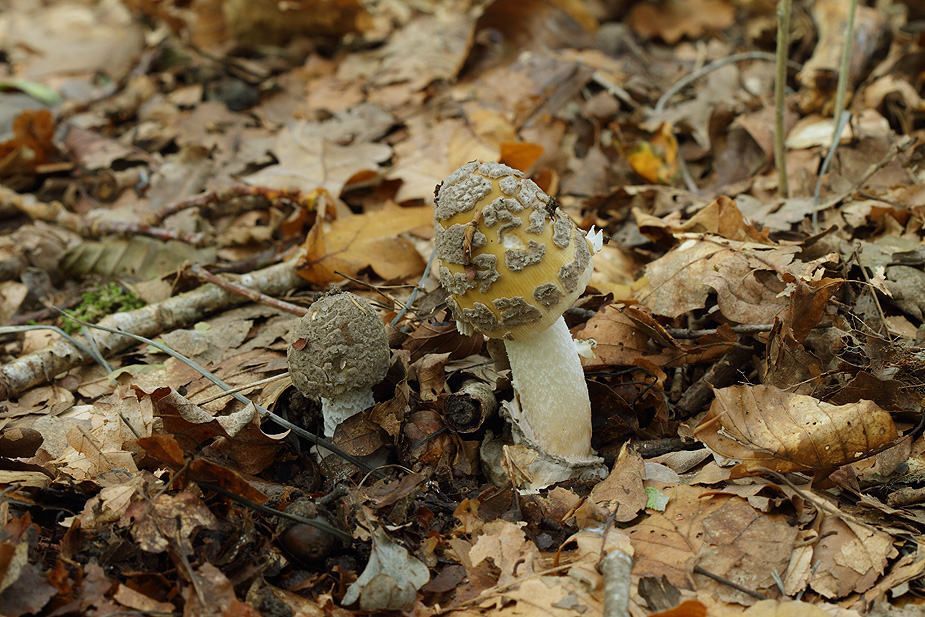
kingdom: Fungi
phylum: Basidiomycota
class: Agaricomycetes
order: Agaricales
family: Amanitaceae
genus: Amanita
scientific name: Amanita ceciliae
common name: stor kam-fluesvamp
